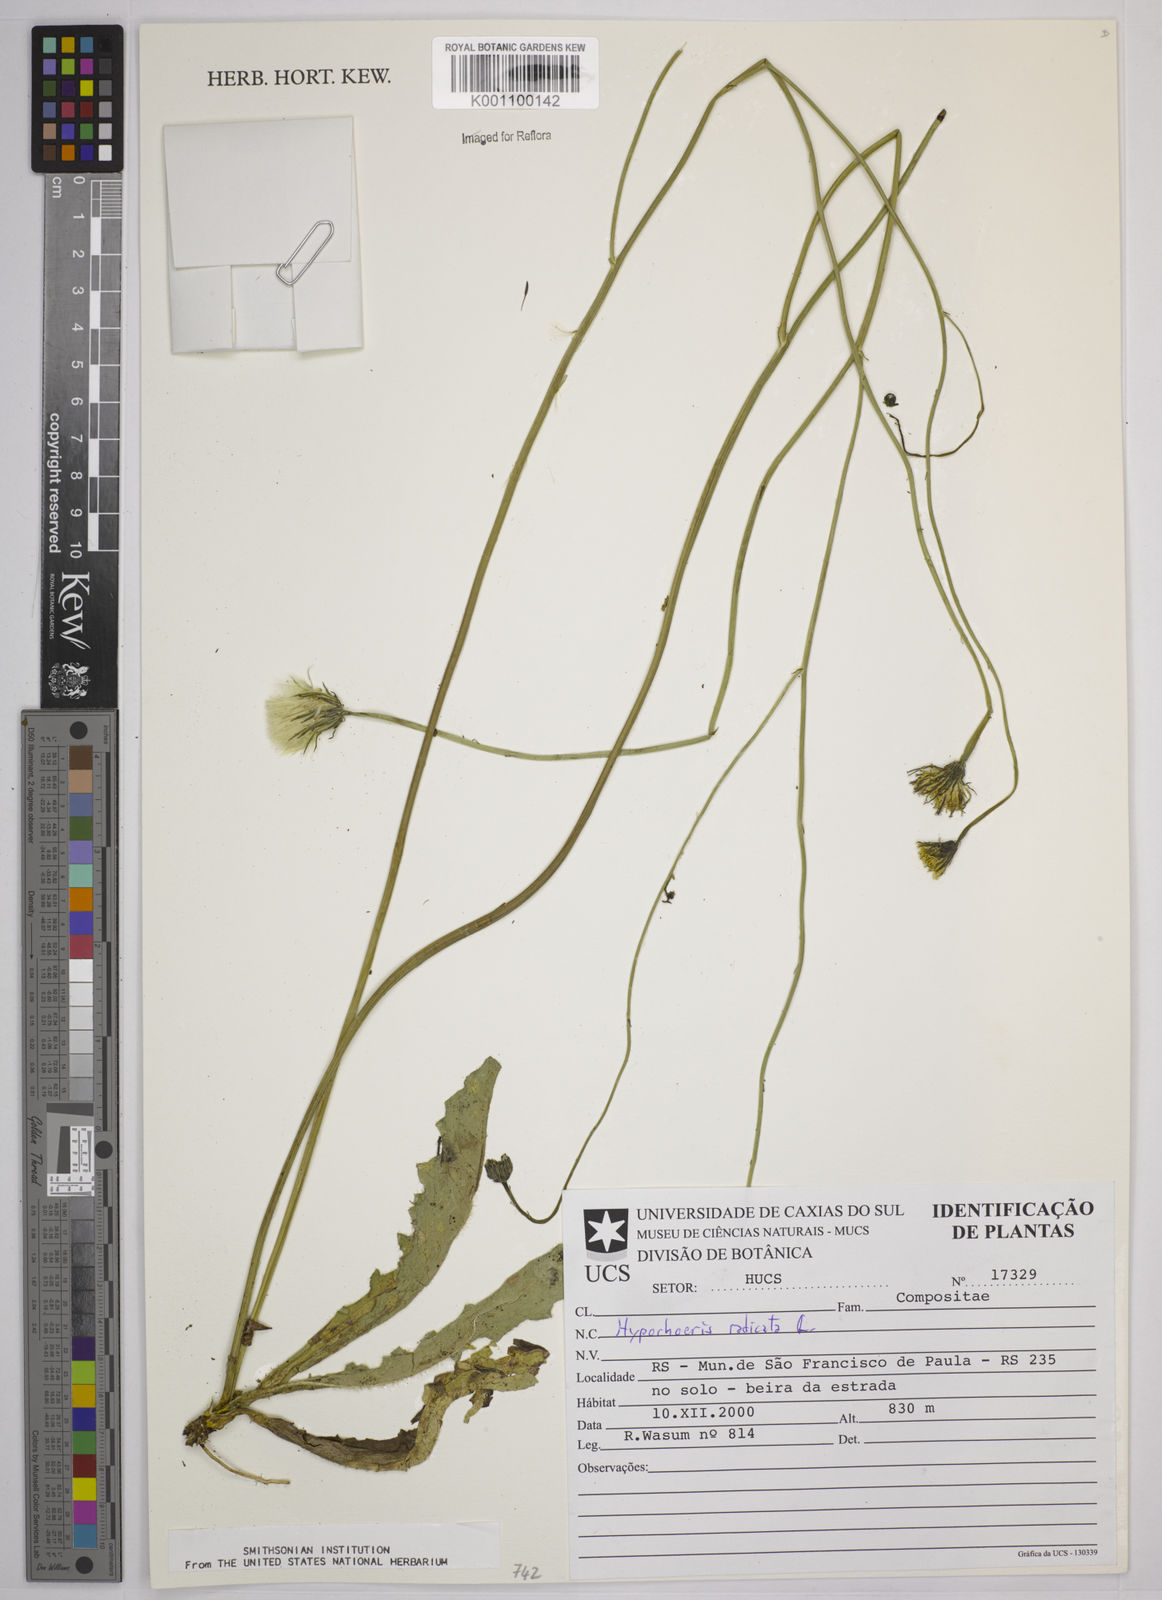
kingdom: Plantae
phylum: Tracheophyta
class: Magnoliopsida
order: Asterales
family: Asteraceae
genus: Hypochaeris
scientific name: Hypochaeris
